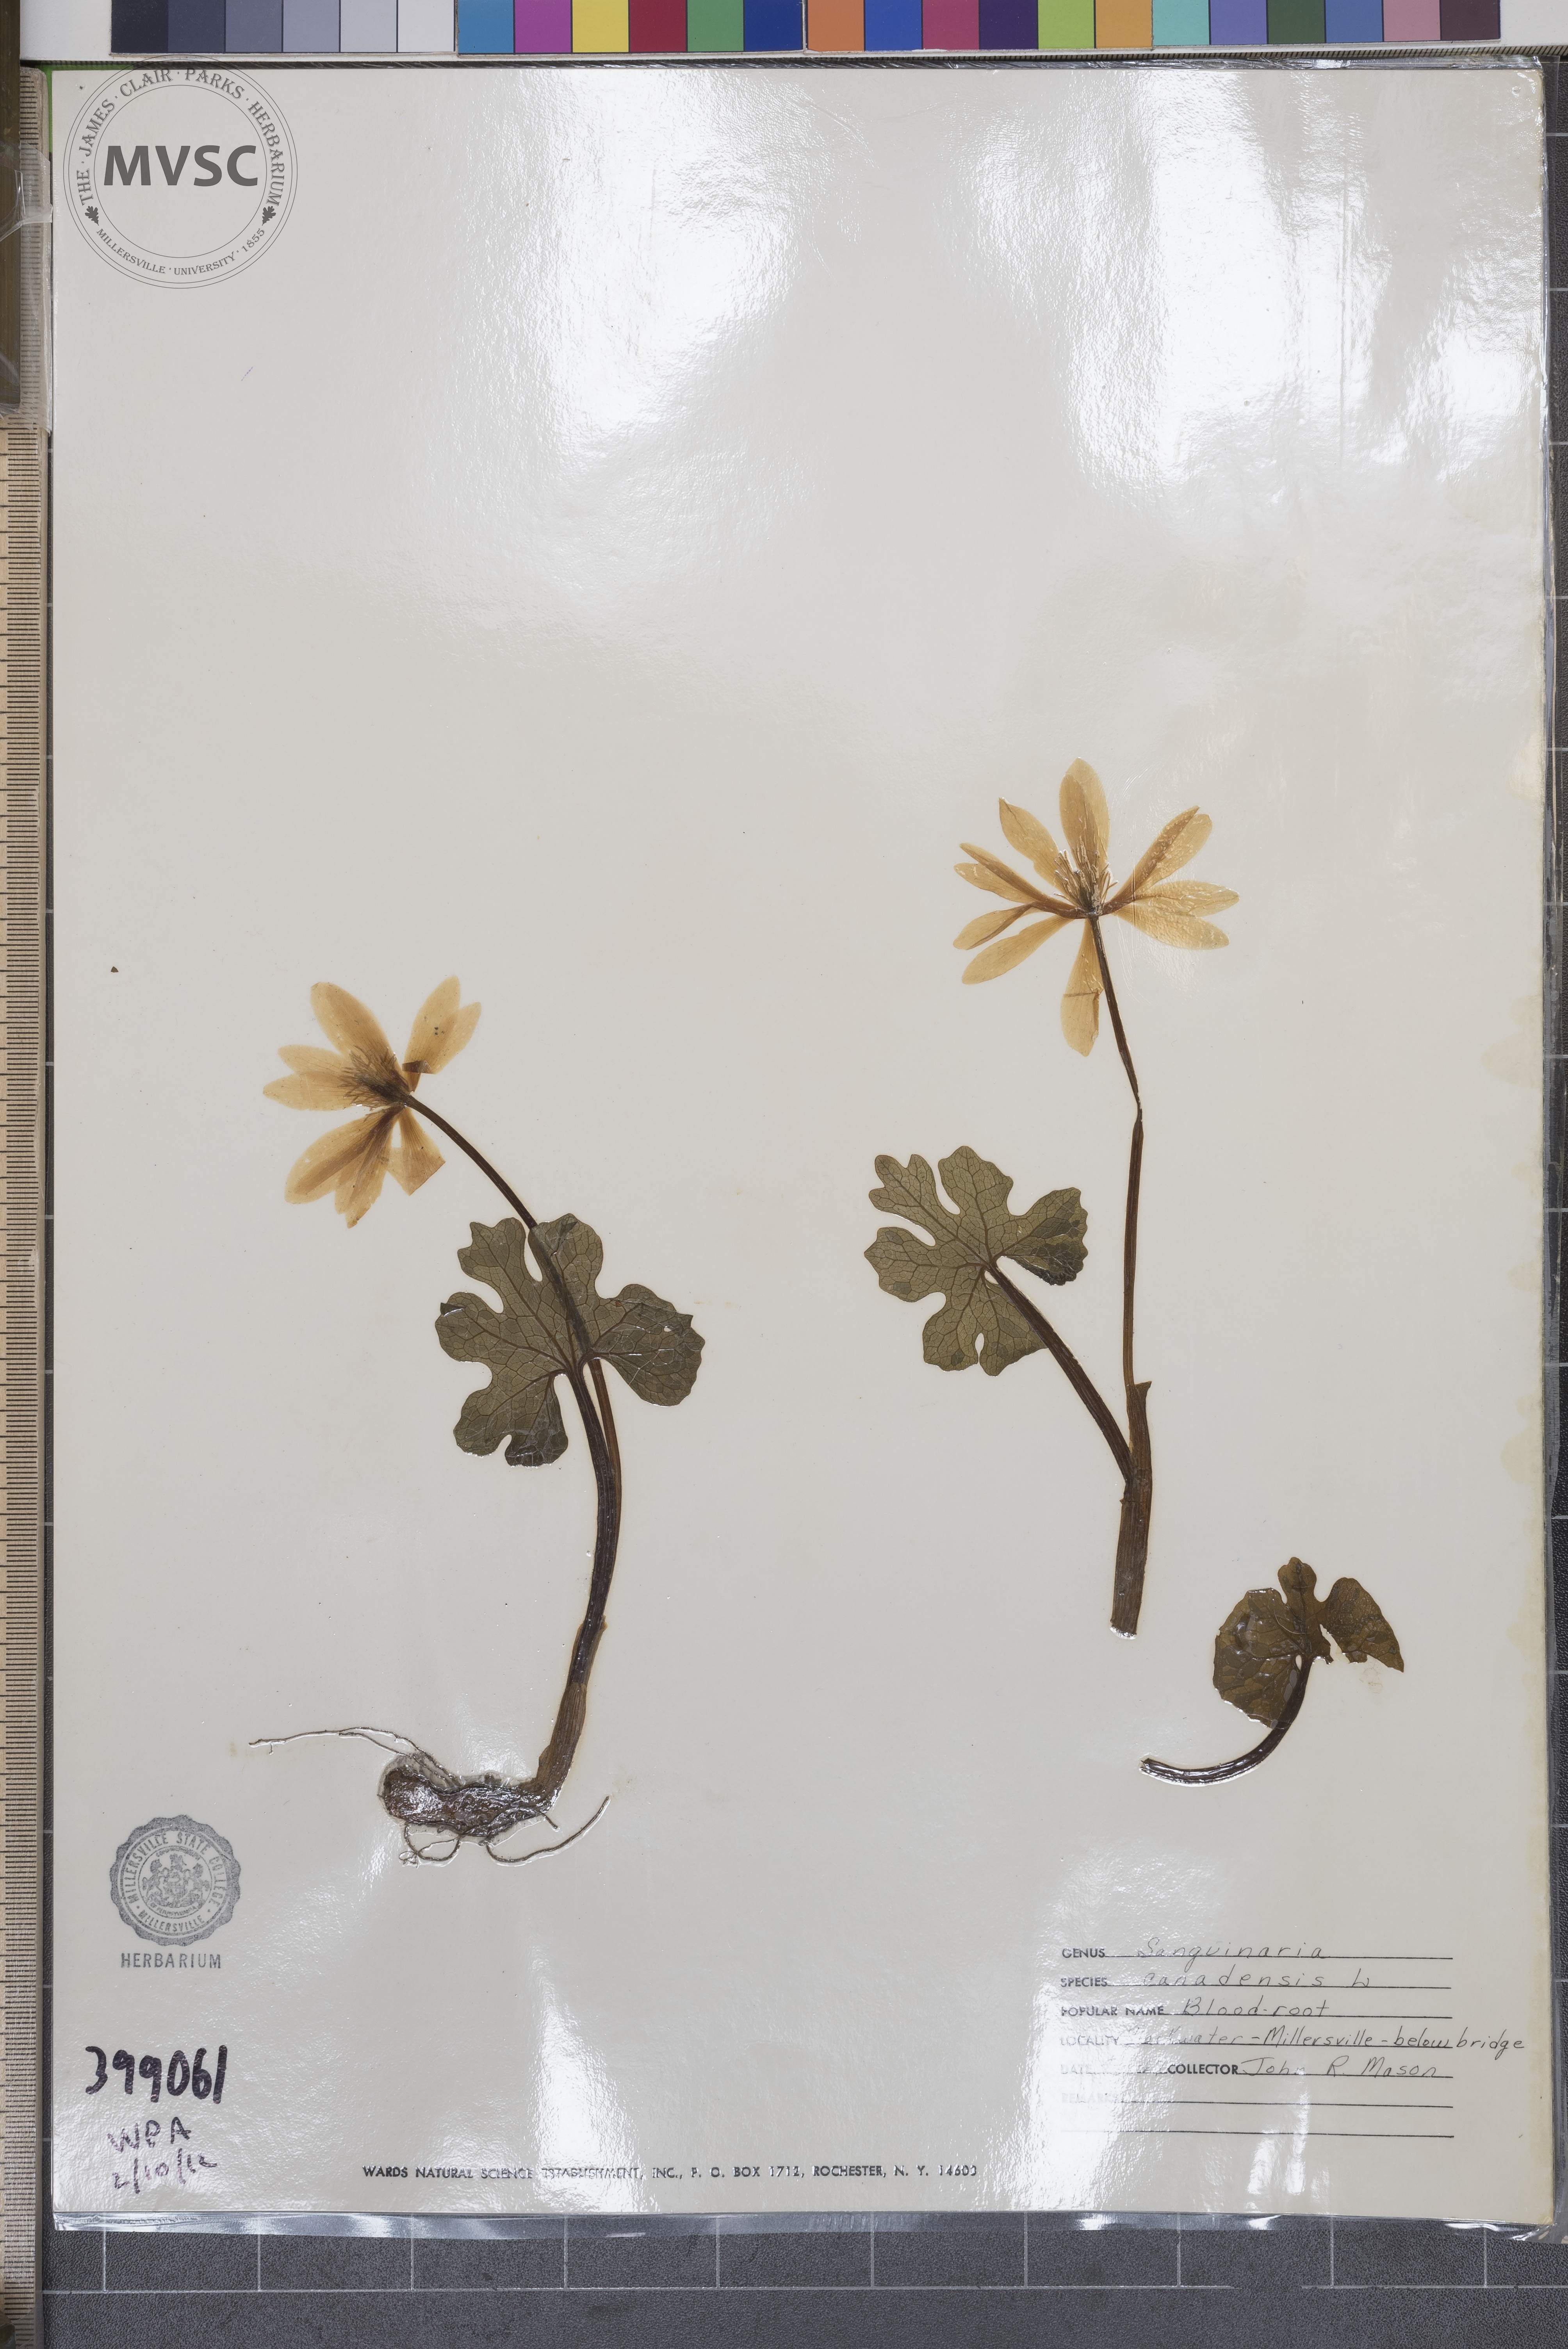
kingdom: Plantae
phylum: Tracheophyta
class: Magnoliopsida
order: Ranunculales
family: Papaveraceae
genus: Sanguinaria
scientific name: Sanguinaria canadensis
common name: Bloodroot
